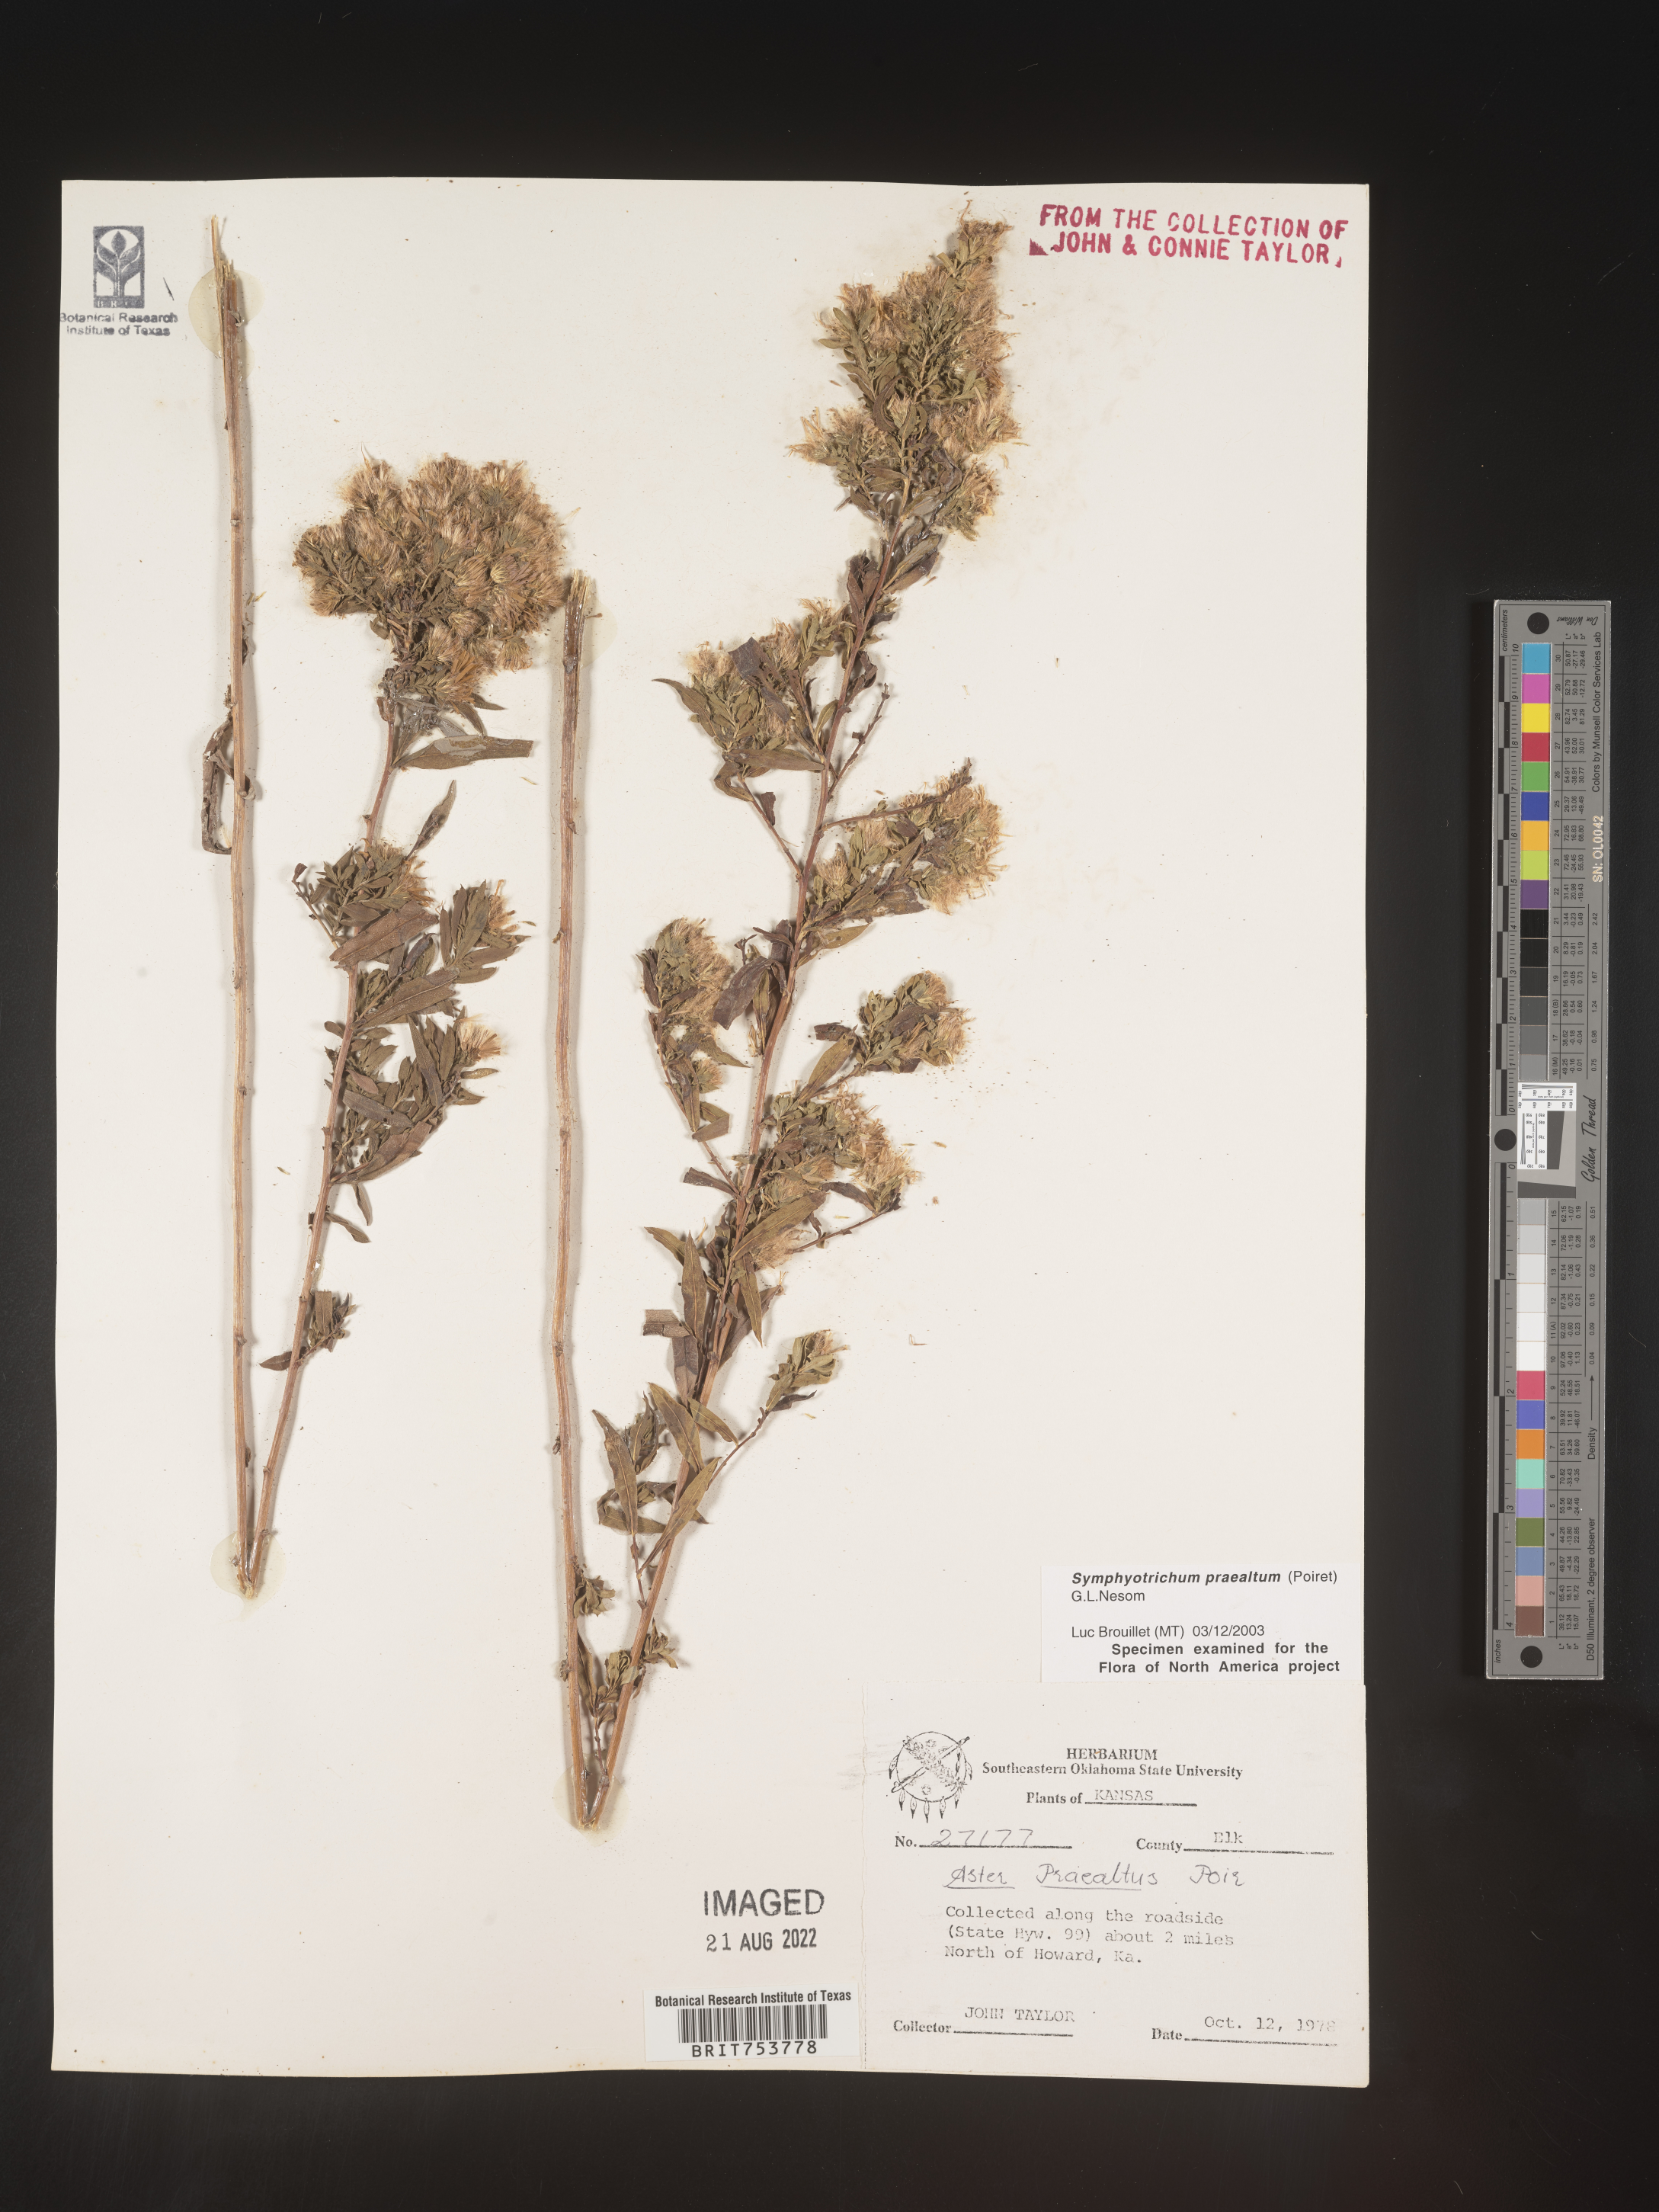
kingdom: Plantae
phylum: Tracheophyta
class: Magnoliopsida
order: Asterales
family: Asteraceae
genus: Symphyotrichum
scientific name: Symphyotrichum praealtum
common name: Willow aster
